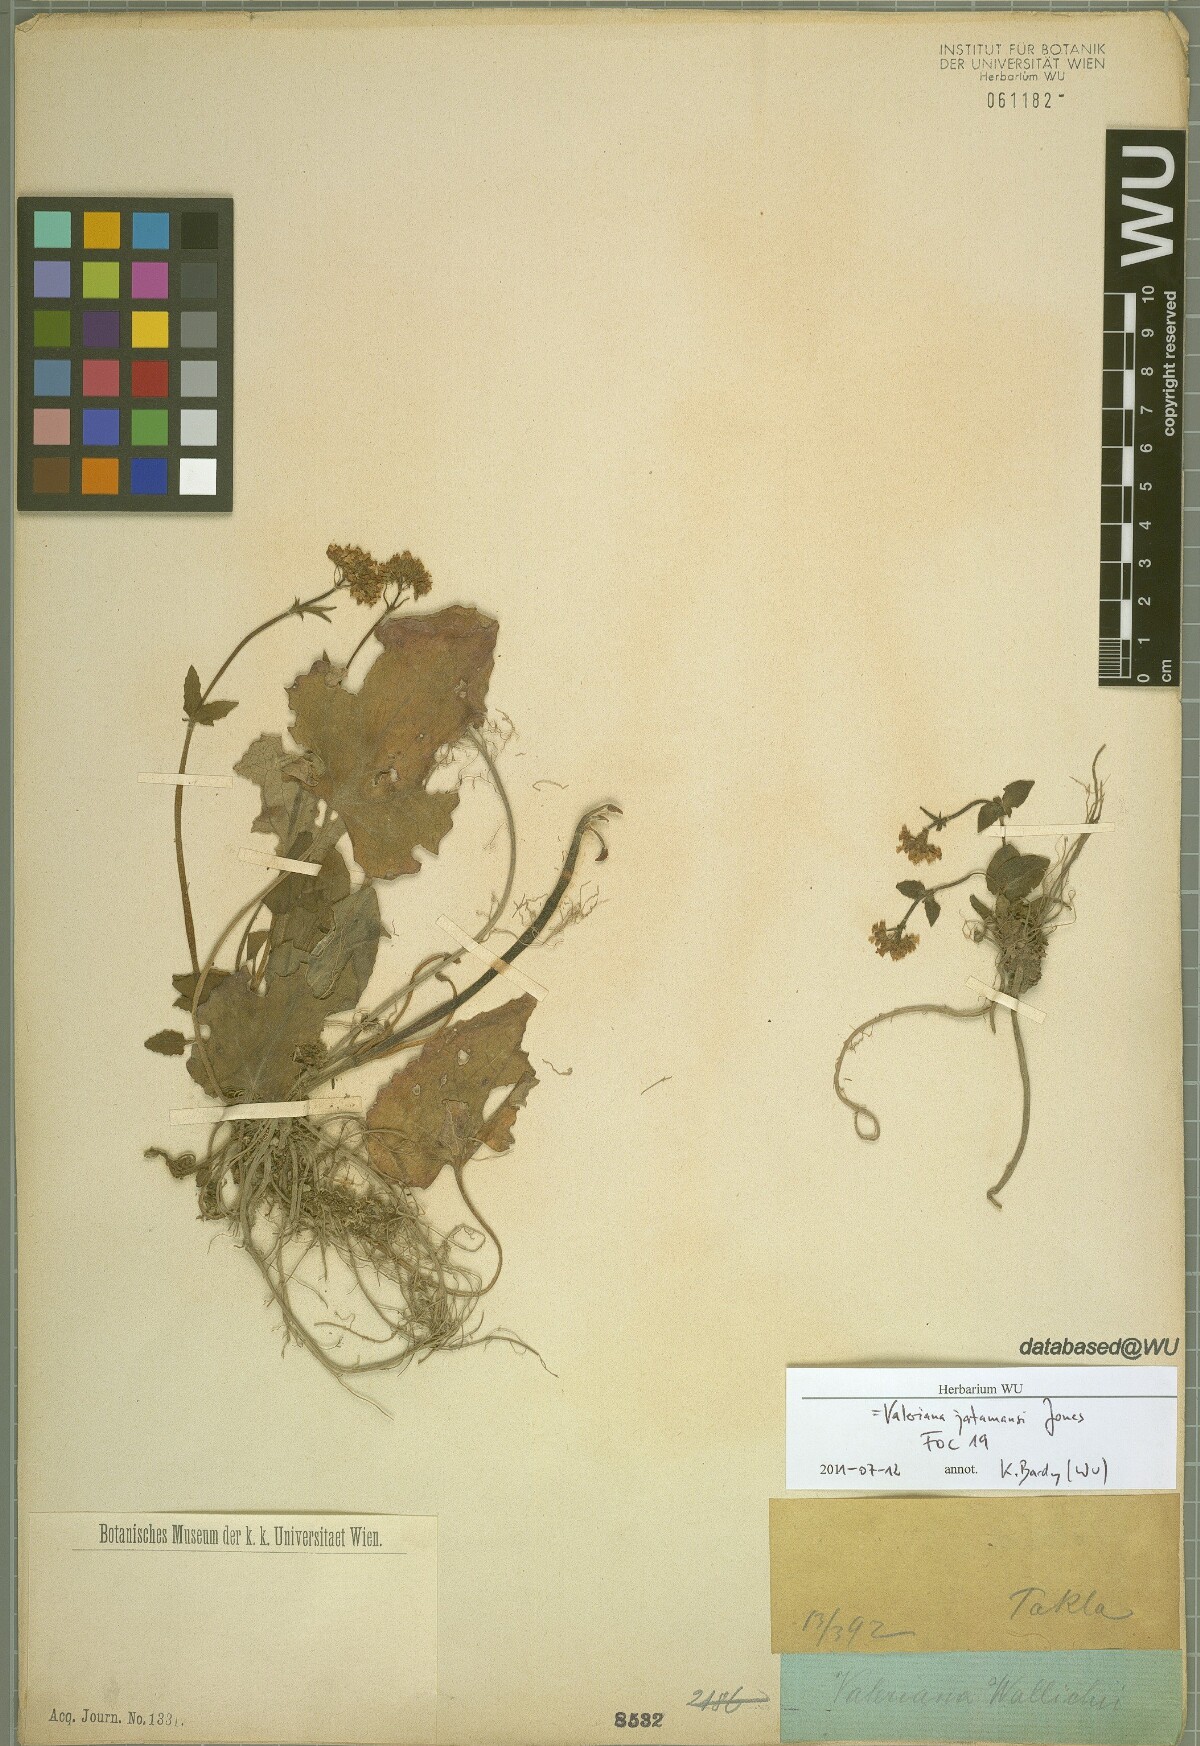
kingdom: Plantae
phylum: Tracheophyta
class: Magnoliopsida
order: Dipsacales
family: Caprifoliaceae
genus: Valeriana
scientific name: Valeriana jatamansi
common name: Indian valerian
